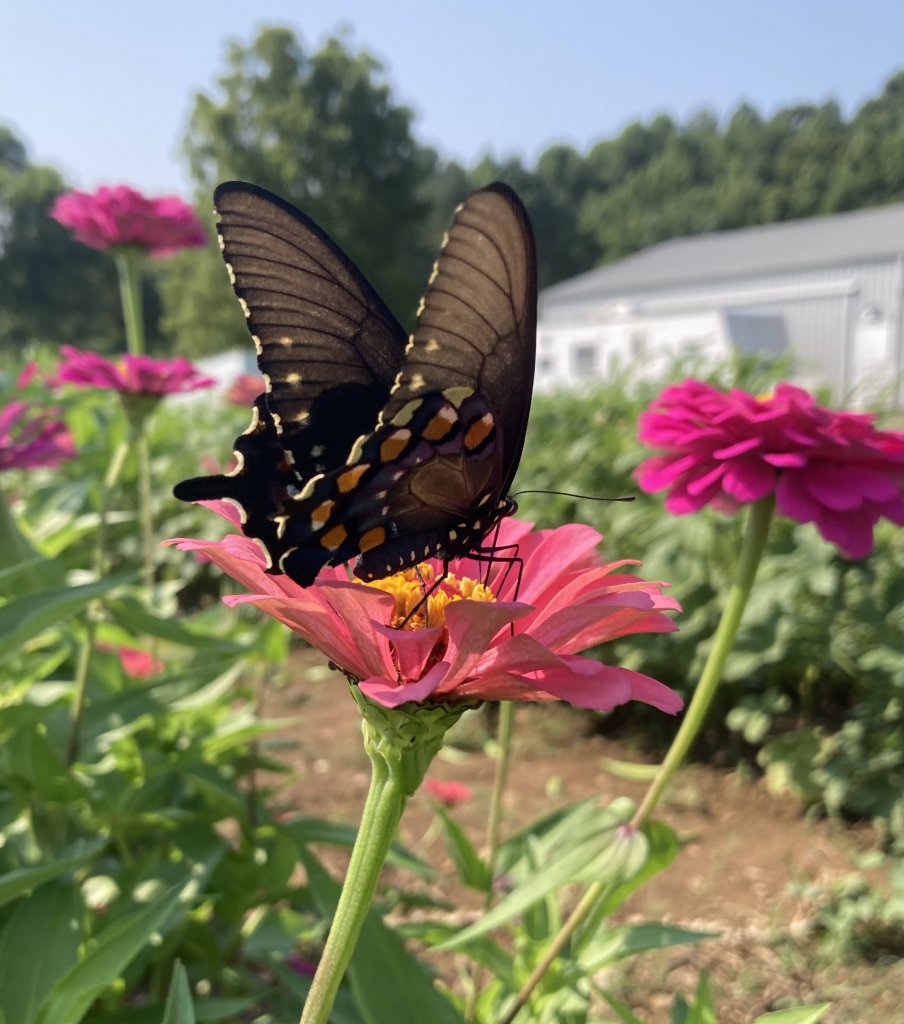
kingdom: Animalia
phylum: Arthropoda
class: Insecta
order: Lepidoptera
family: Papilionidae
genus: Battus
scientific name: Battus philenor
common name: Pipevine Swallowtail
